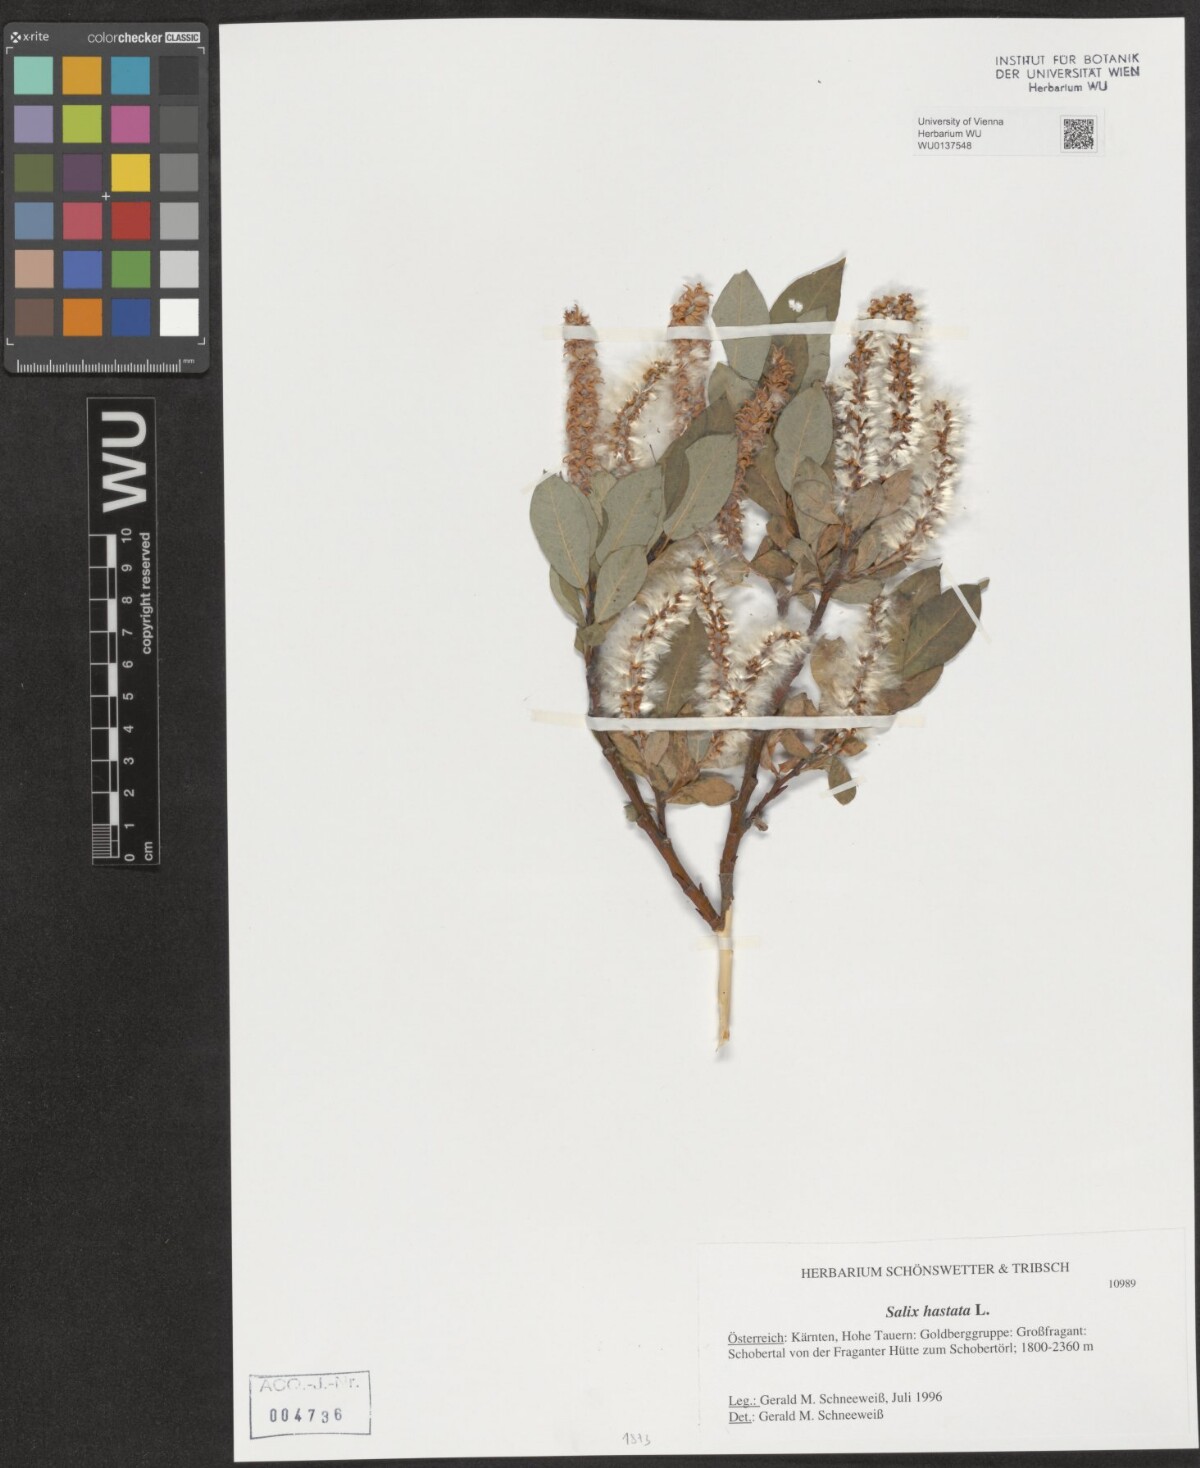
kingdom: Plantae
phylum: Tracheophyta
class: Magnoliopsida
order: Malpighiales
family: Salicaceae
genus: Salix
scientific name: Salix hastata
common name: Halberd willow
